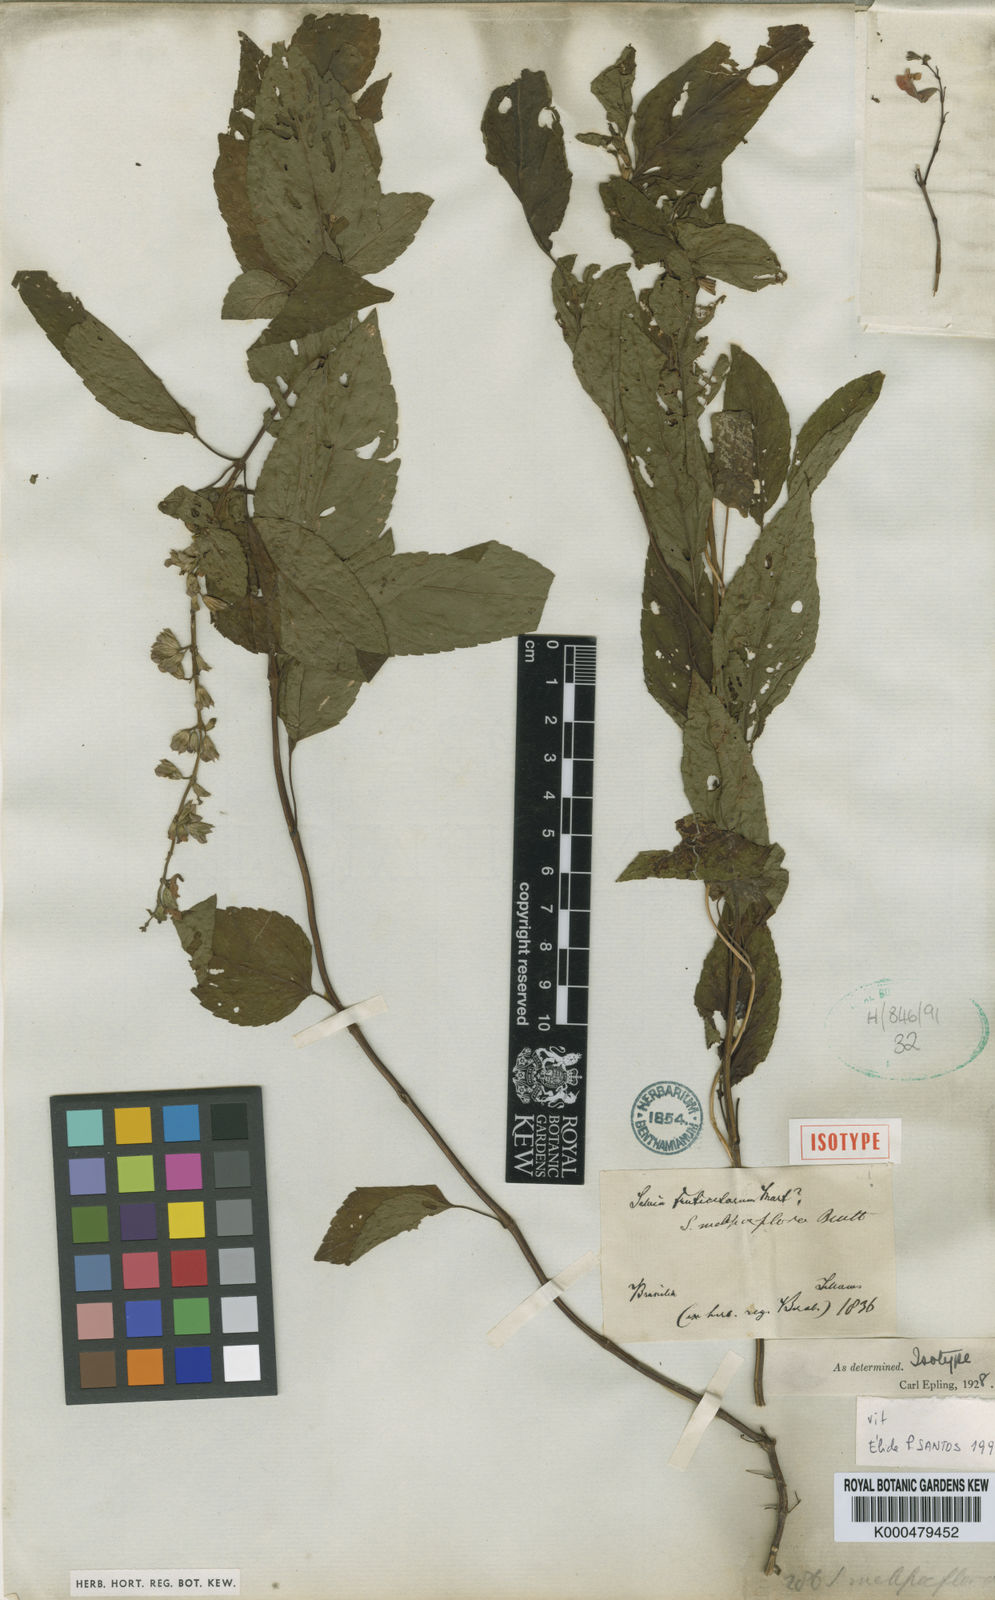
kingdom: Plantae
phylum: Tracheophyta
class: Magnoliopsida
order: Lamiales
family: Lamiaceae
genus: Salvia
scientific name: Salvia melissiflora
